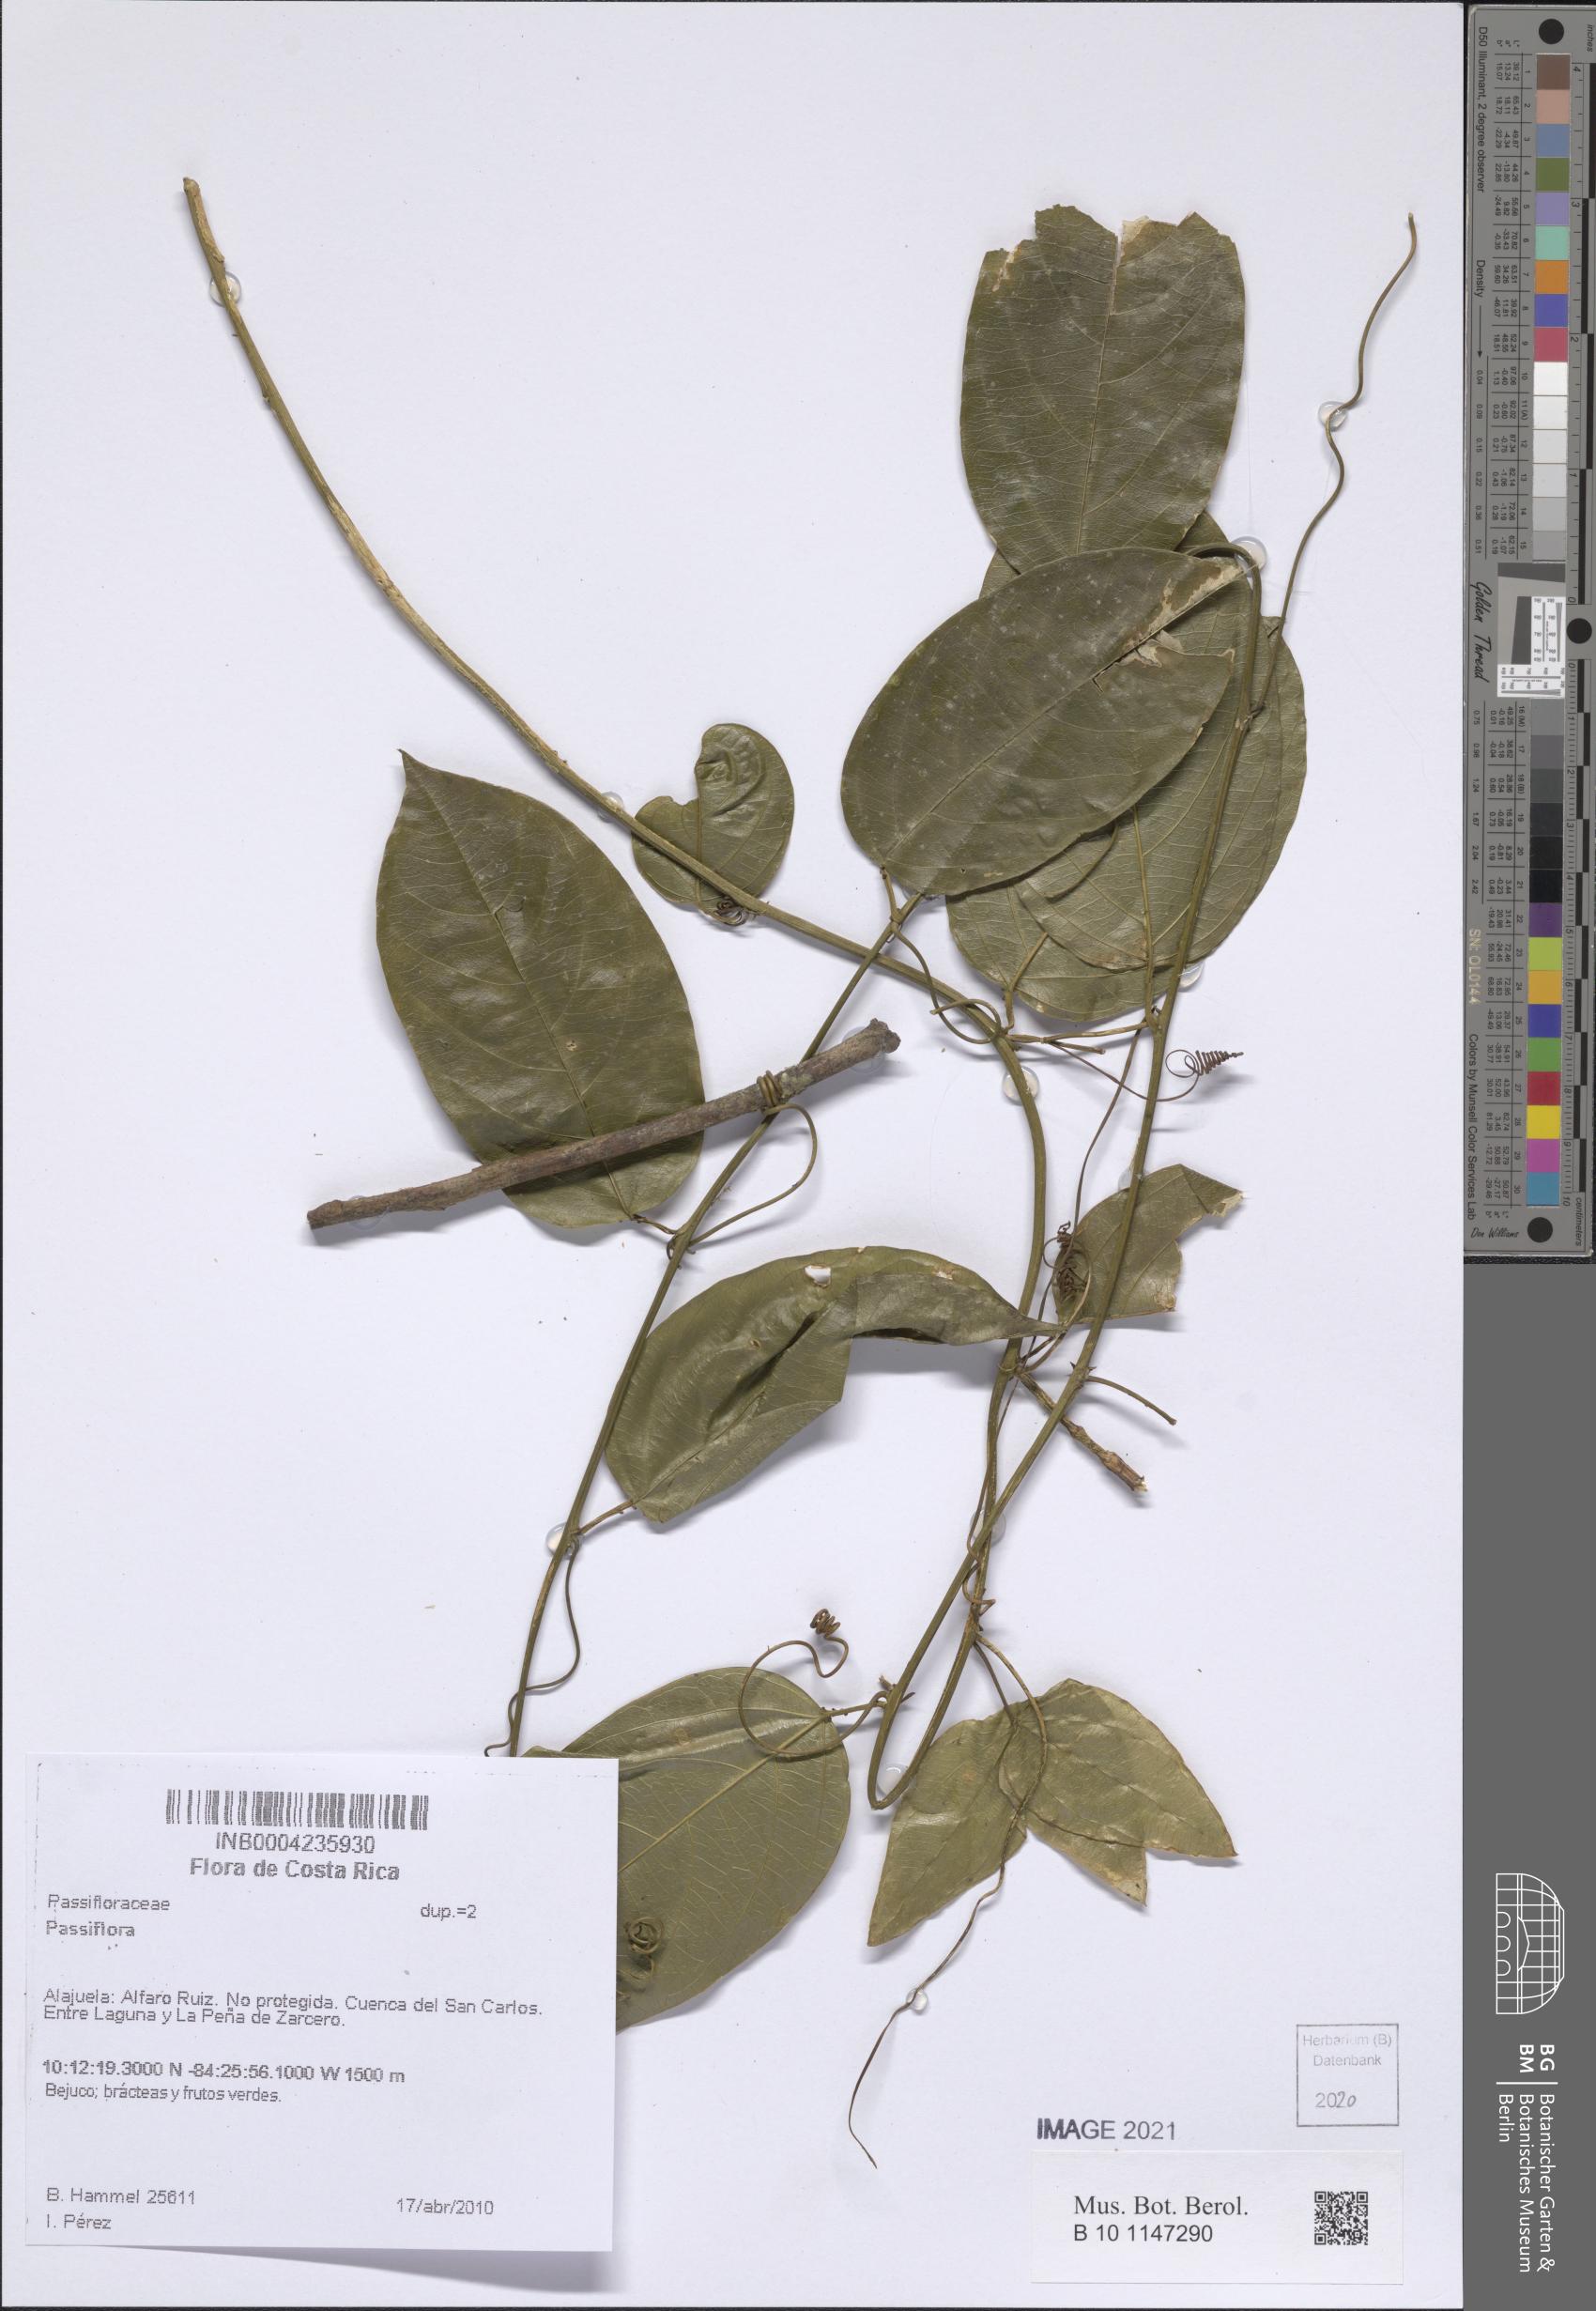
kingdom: Plantae
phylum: Tracheophyta
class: Magnoliopsida
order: Malpighiales
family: Passifloraceae
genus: Passiflora
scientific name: Passiflora
